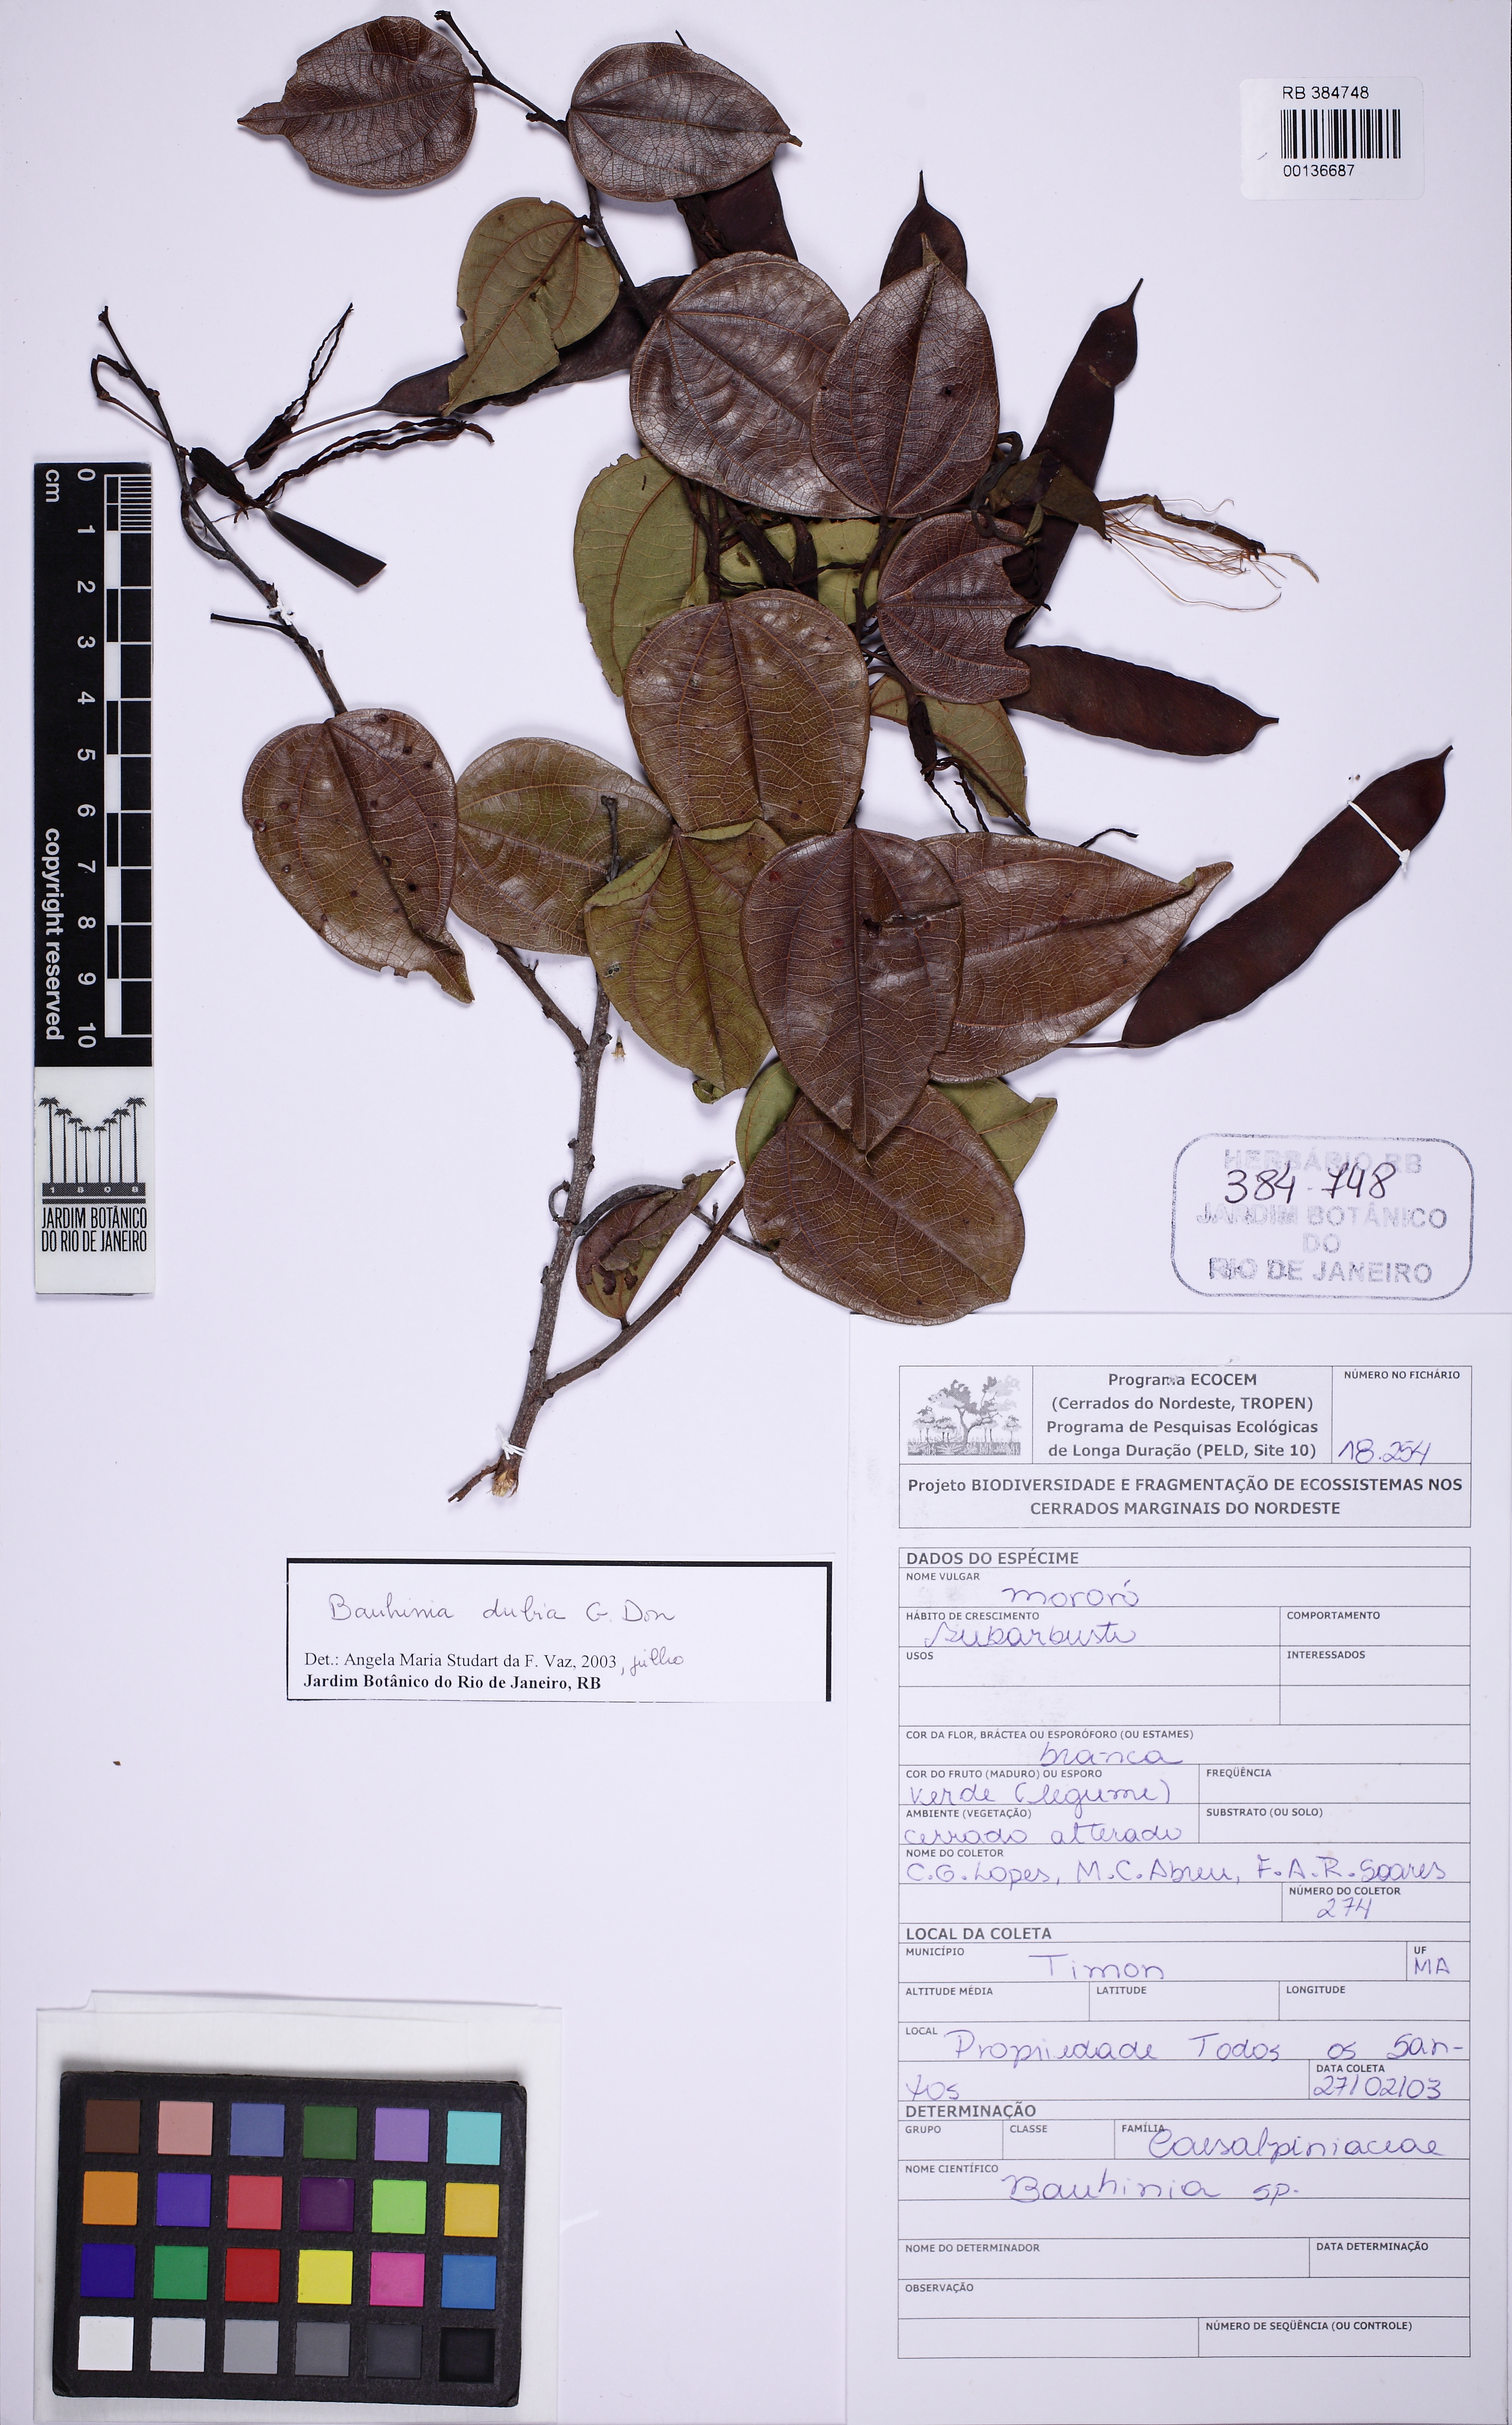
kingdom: Plantae
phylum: Tracheophyta
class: Magnoliopsida
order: Fabales
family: Fabaceae
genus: Bauhinia
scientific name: Bauhinia dubia
